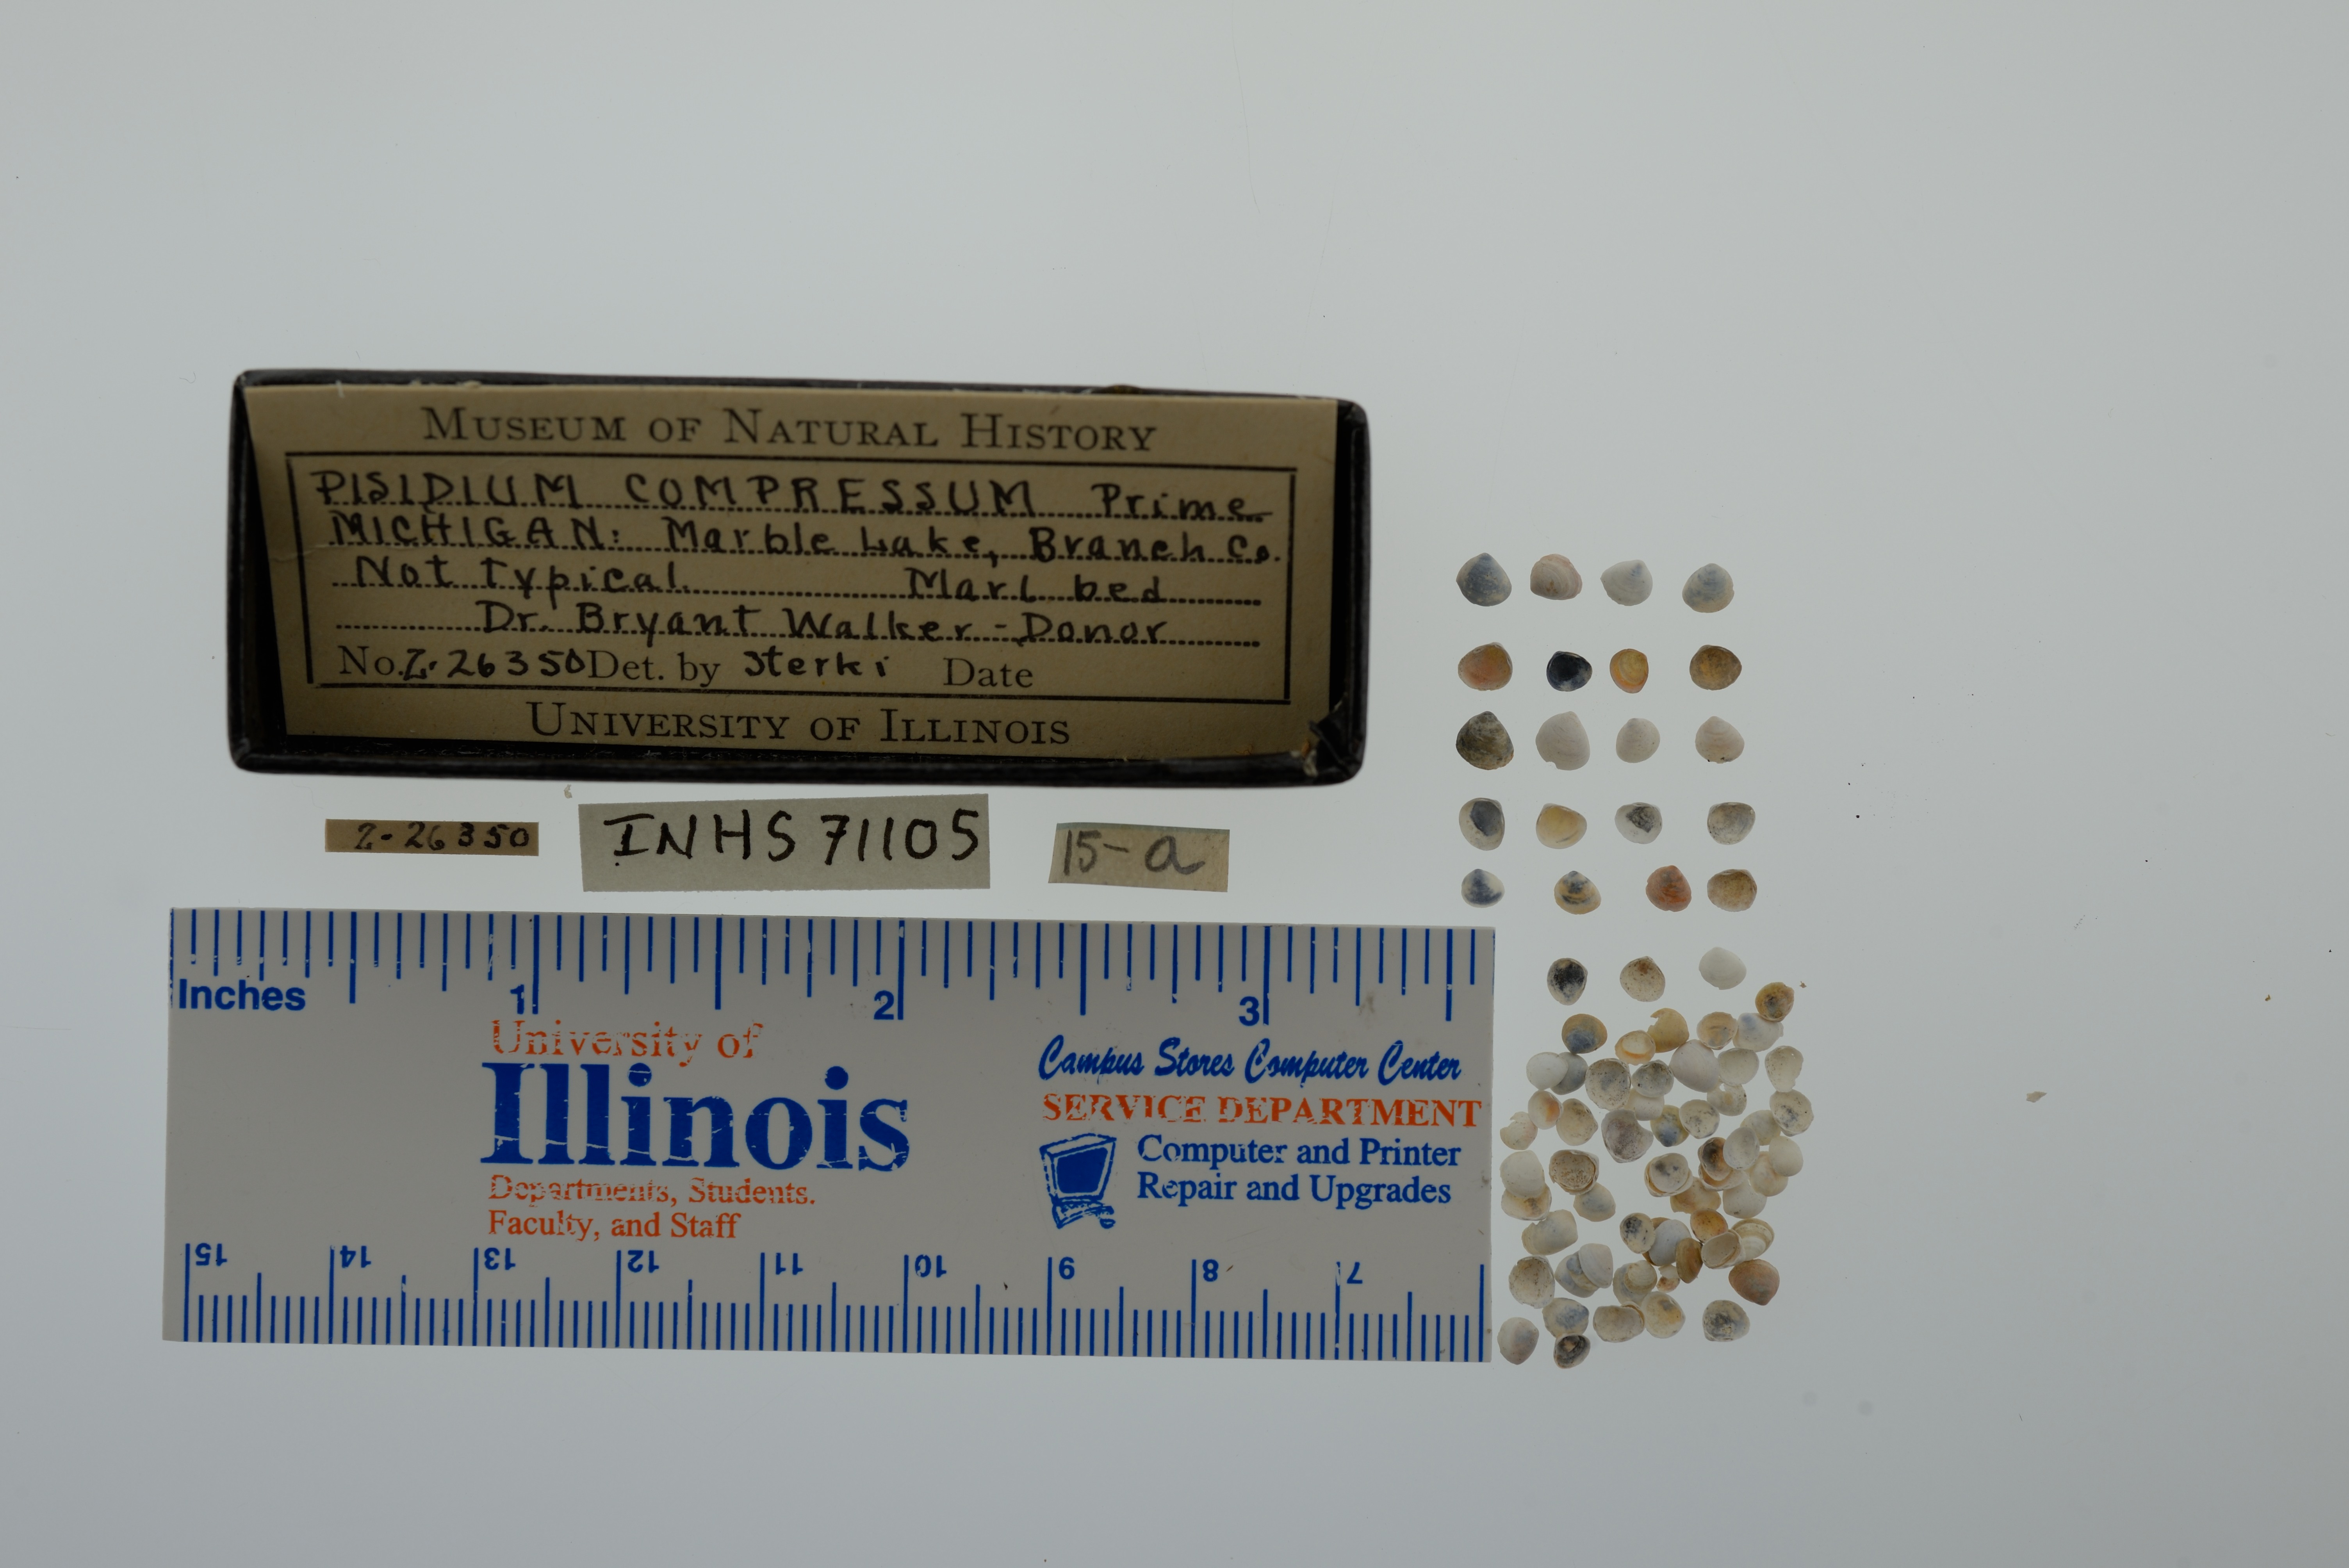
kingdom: Animalia
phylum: Mollusca
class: Bivalvia
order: Sphaeriida
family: Sphaeriidae
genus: Euglesa
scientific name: Euglesa compressa
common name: Ridgedbeak peaclam
